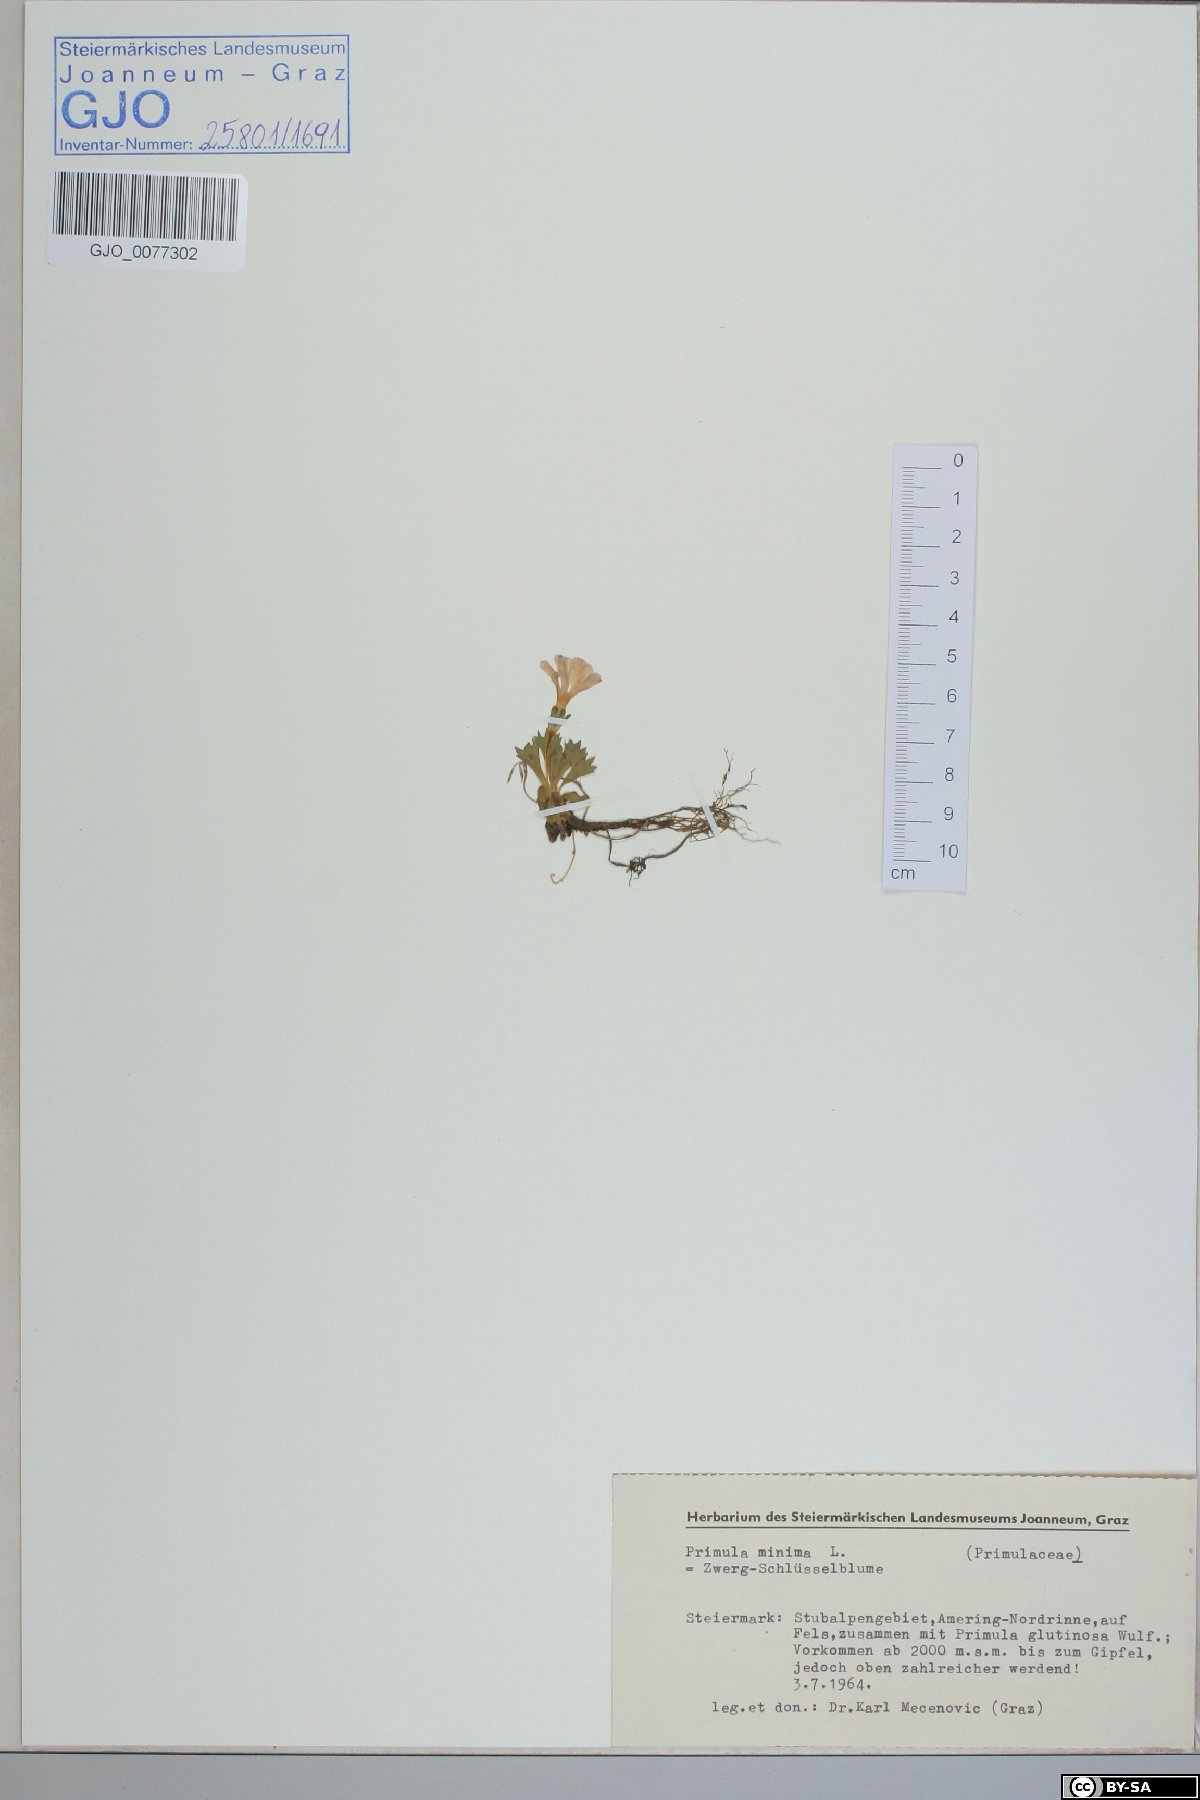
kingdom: Plantae
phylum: Tracheophyta
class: Magnoliopsida
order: Ericales
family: Primulaceae
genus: Primula
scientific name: Primula minima
